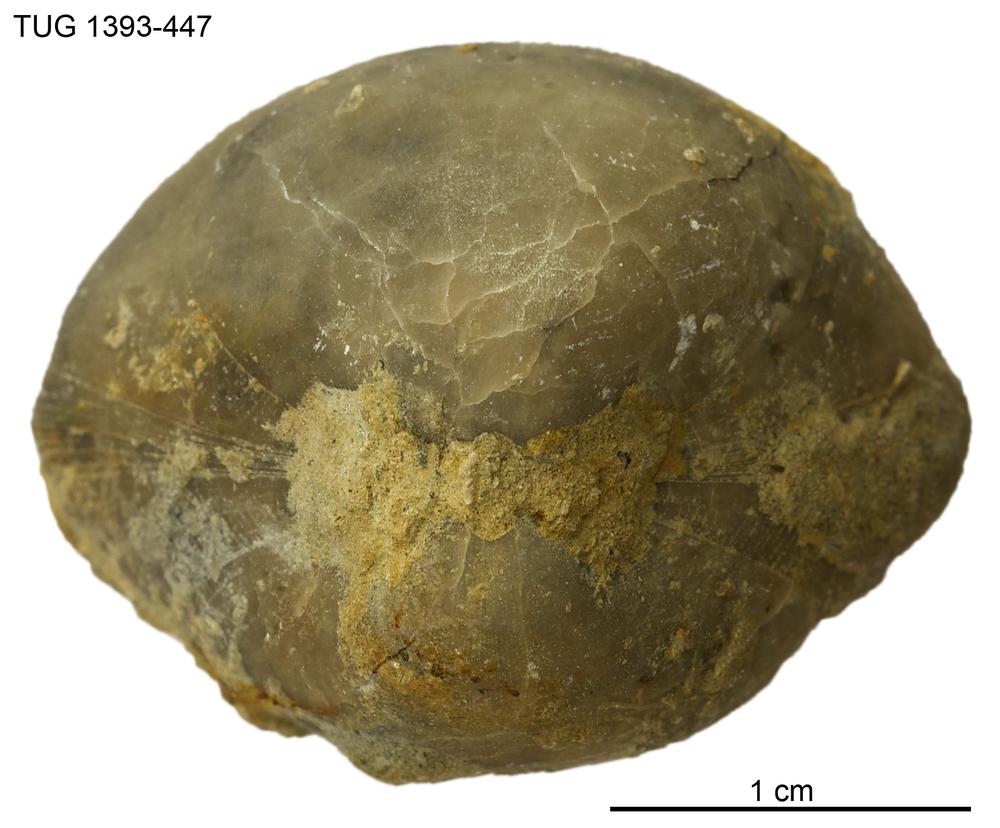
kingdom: Animalia
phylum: Brachiopoda
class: Rhynchonellata
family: Porambonitidae
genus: Porambonites
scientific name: Porambonites
